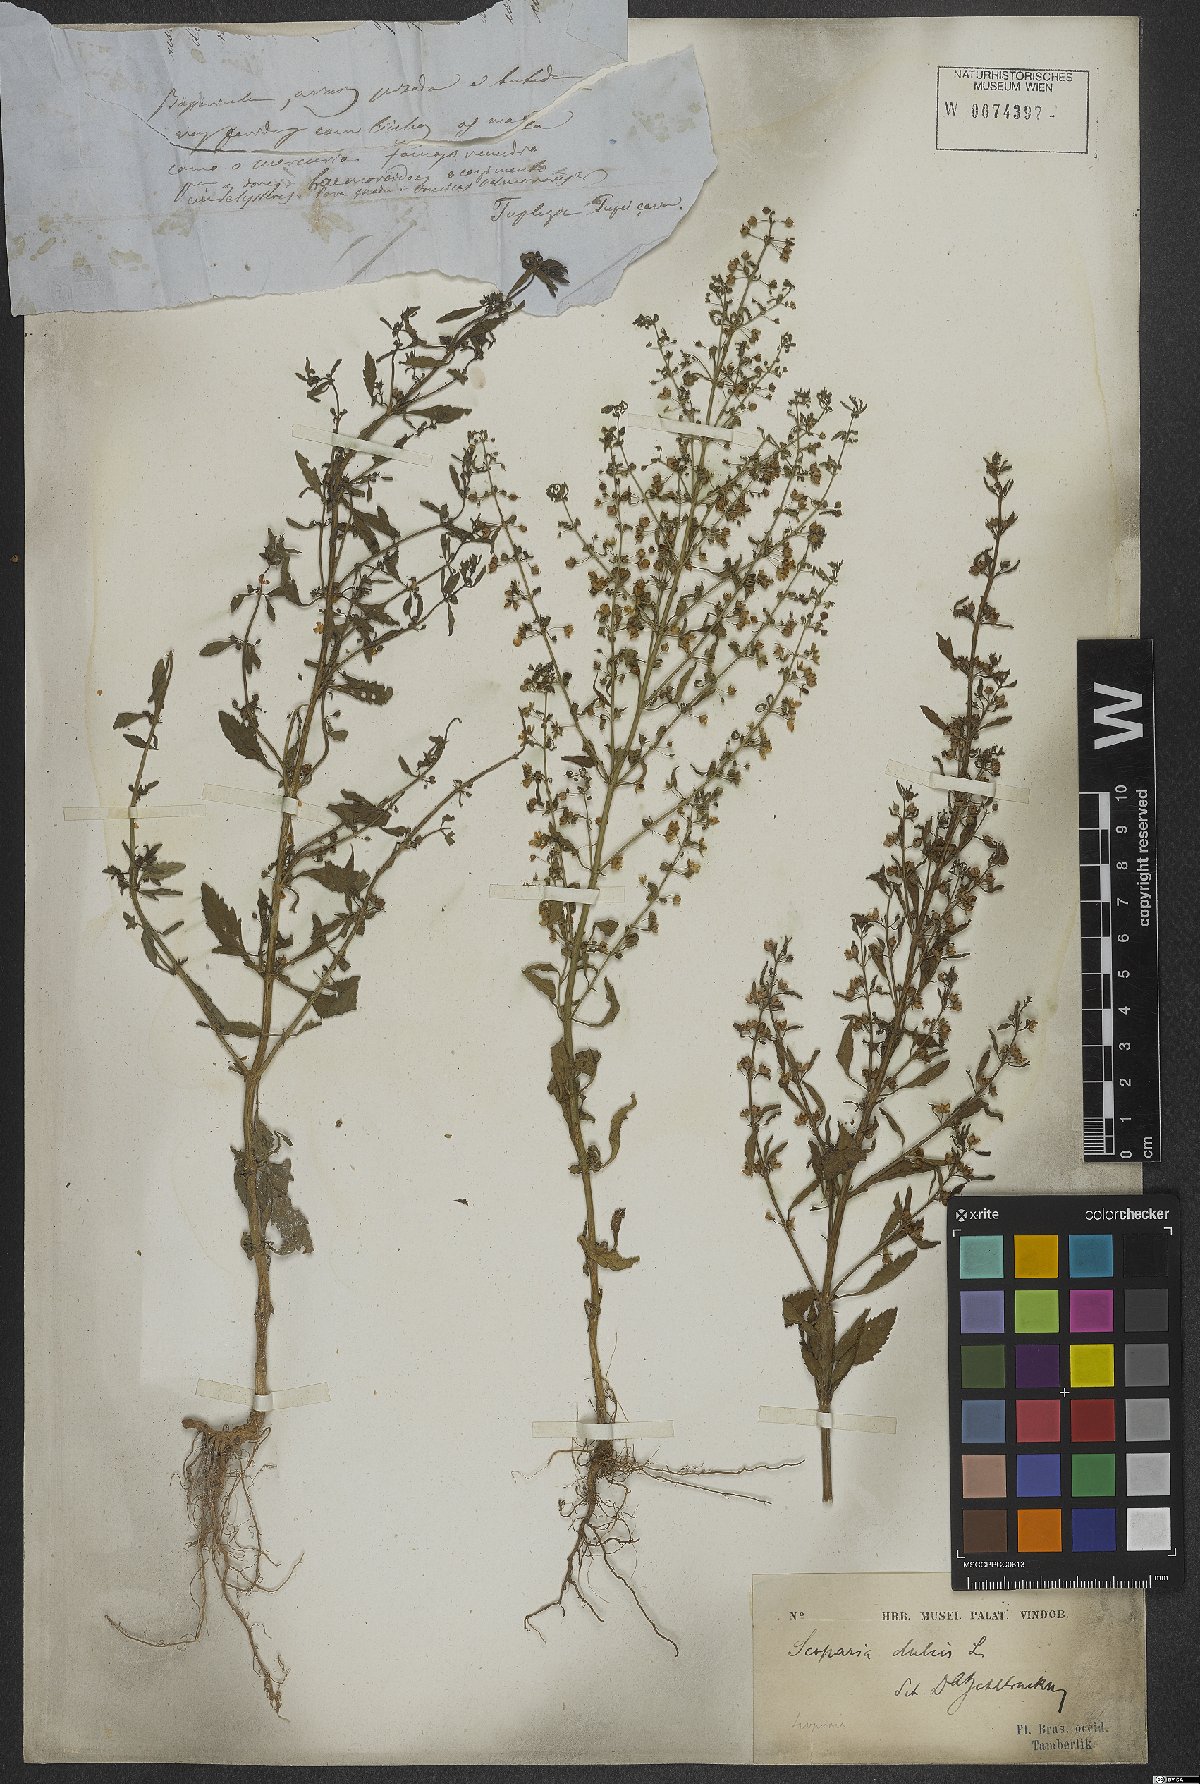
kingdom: Plantae
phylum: Tracheophyta
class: Magnoliopsida
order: Lamiales
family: Plantaginaceae
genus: Scoparia
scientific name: Scoparia dulcis
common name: Scoparia-weed
